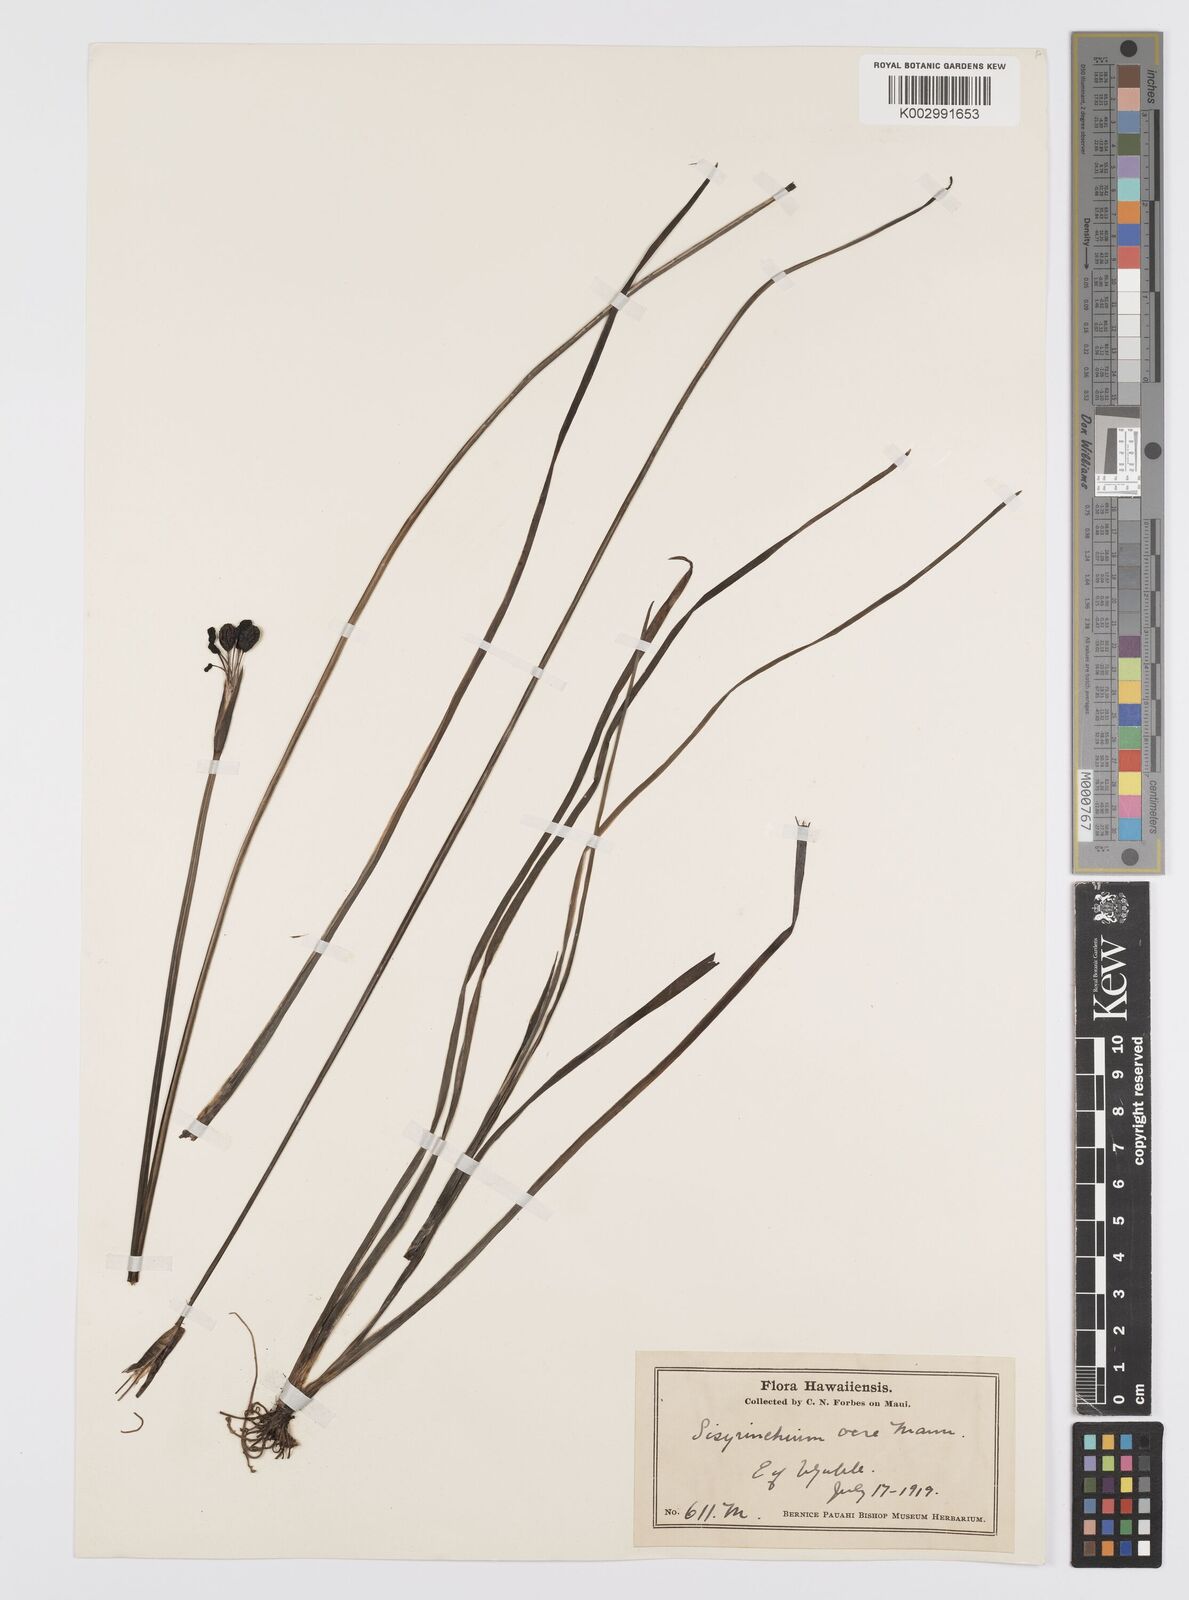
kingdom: Plantae
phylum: Tracheophyta
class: Liliopsida
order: Asparagales
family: Iridaceae
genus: Sisyrinchium
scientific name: Sisyrinchium acre
